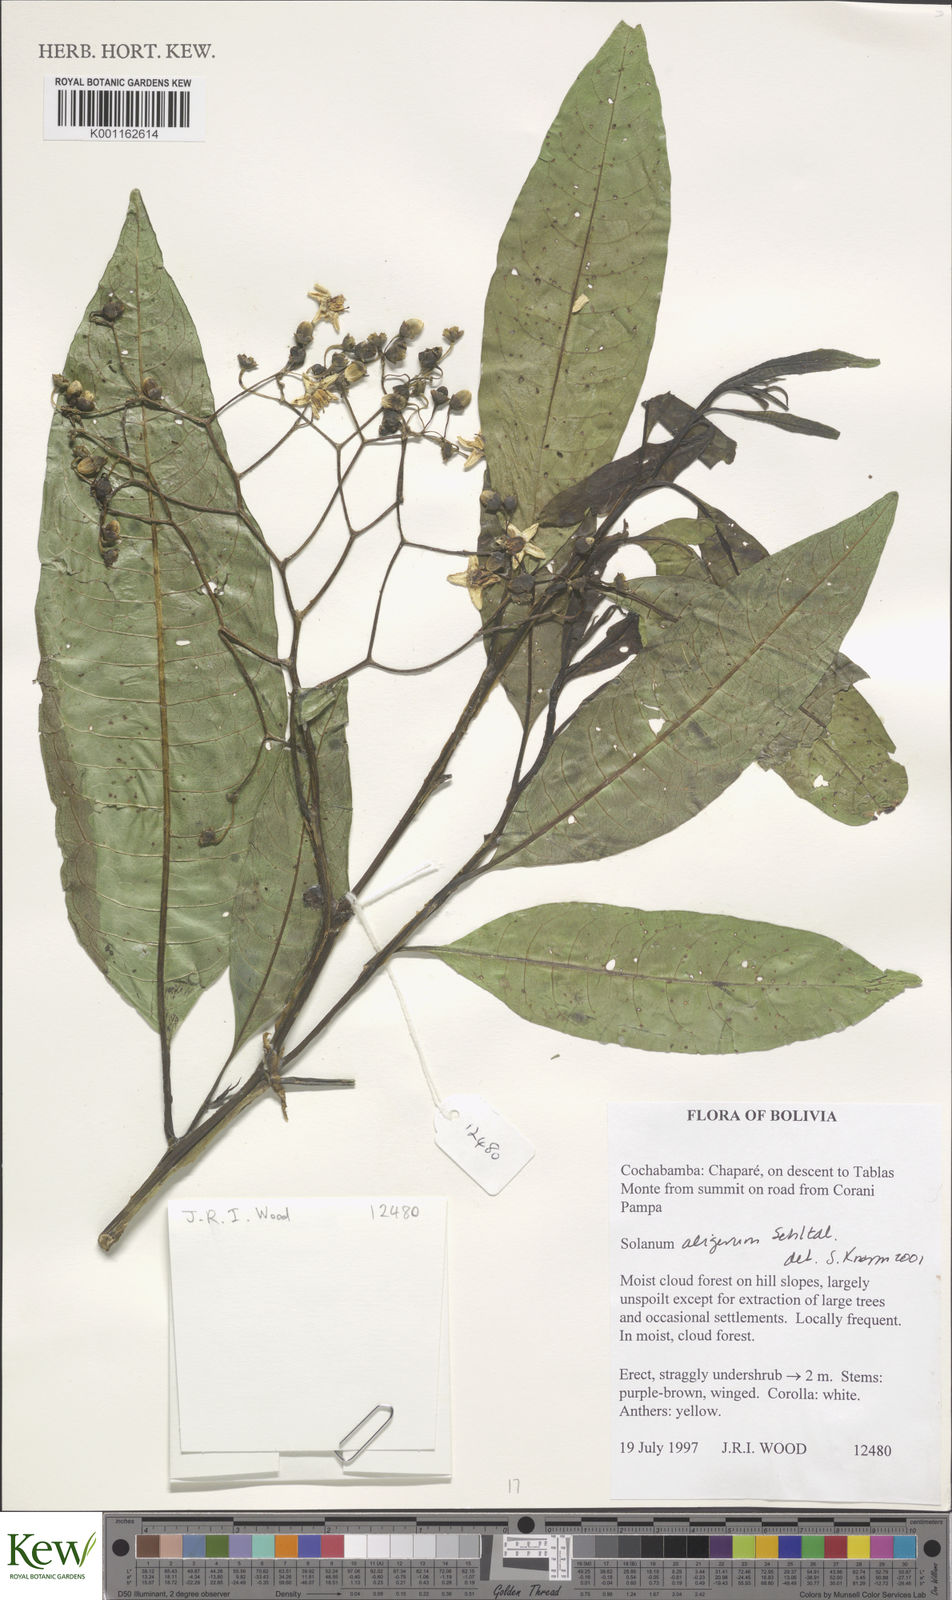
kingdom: Plantae
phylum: Tracheophyta
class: Magnoliopsida
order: Solanales
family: Solanaceae
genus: Solanum
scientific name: Solanum aligerum
